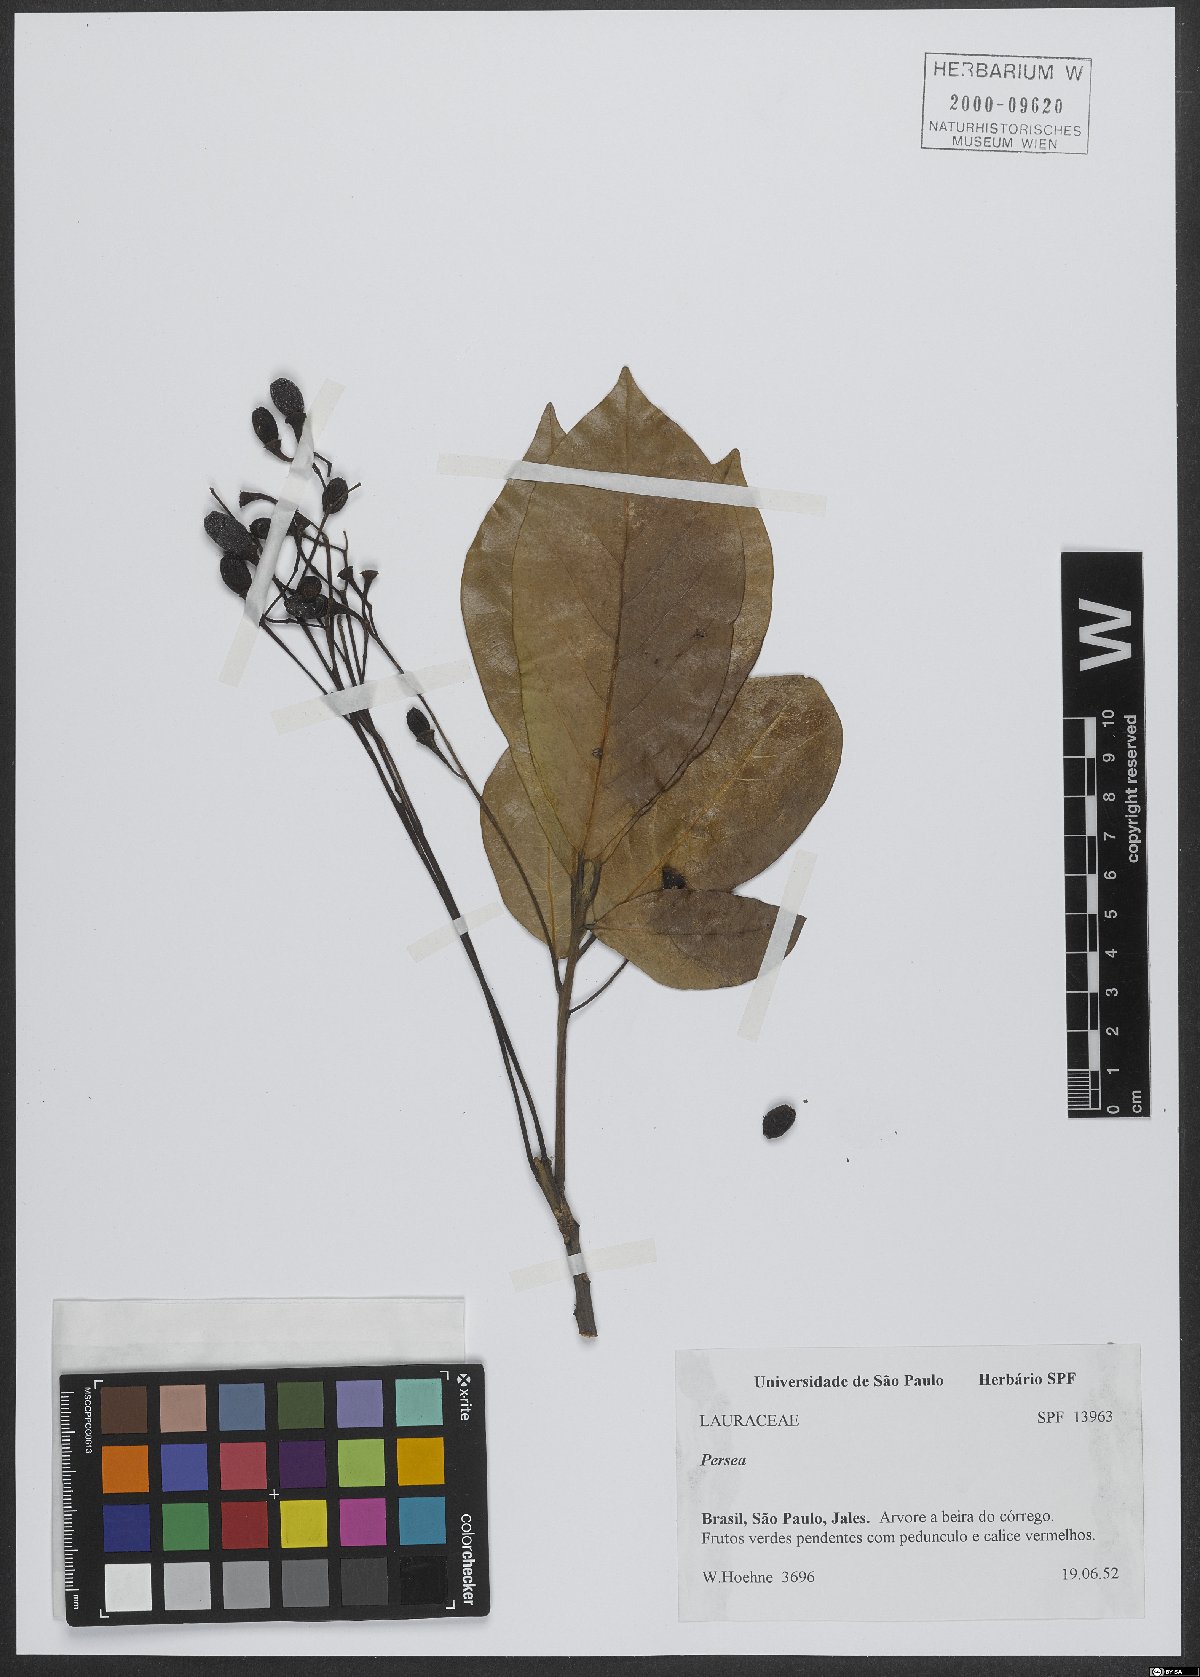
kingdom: Plantae
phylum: Tracheophyta
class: Magnoliopsida
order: Laurales
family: Lauraceae
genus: Persea
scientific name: Persea
